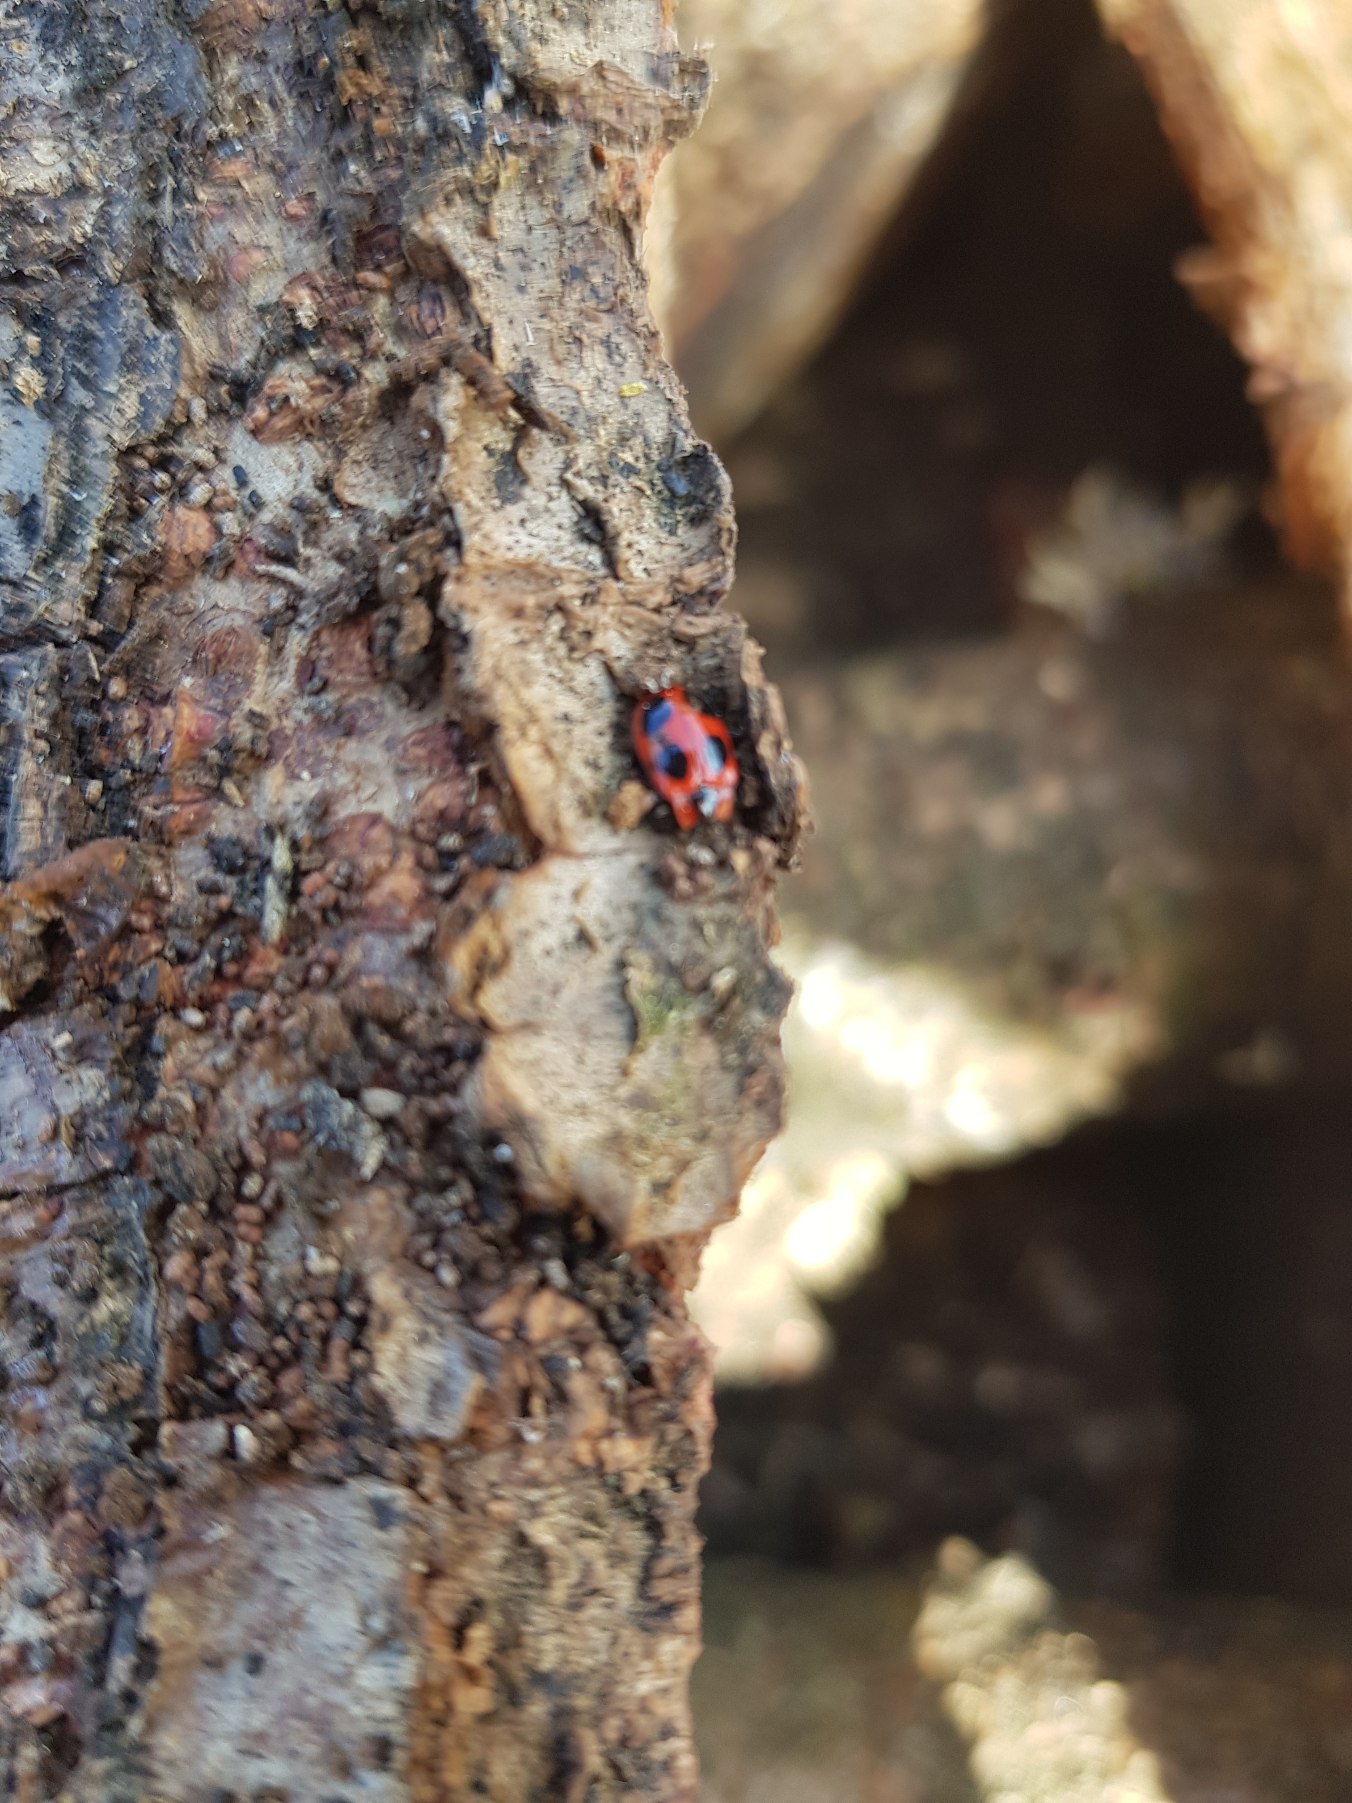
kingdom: Animalia
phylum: Arthropoda
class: Insecta
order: Coleoptera
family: Endomychidae
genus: Endomychus
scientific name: Endomychus coccineus
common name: Skarlagensvampehøne
